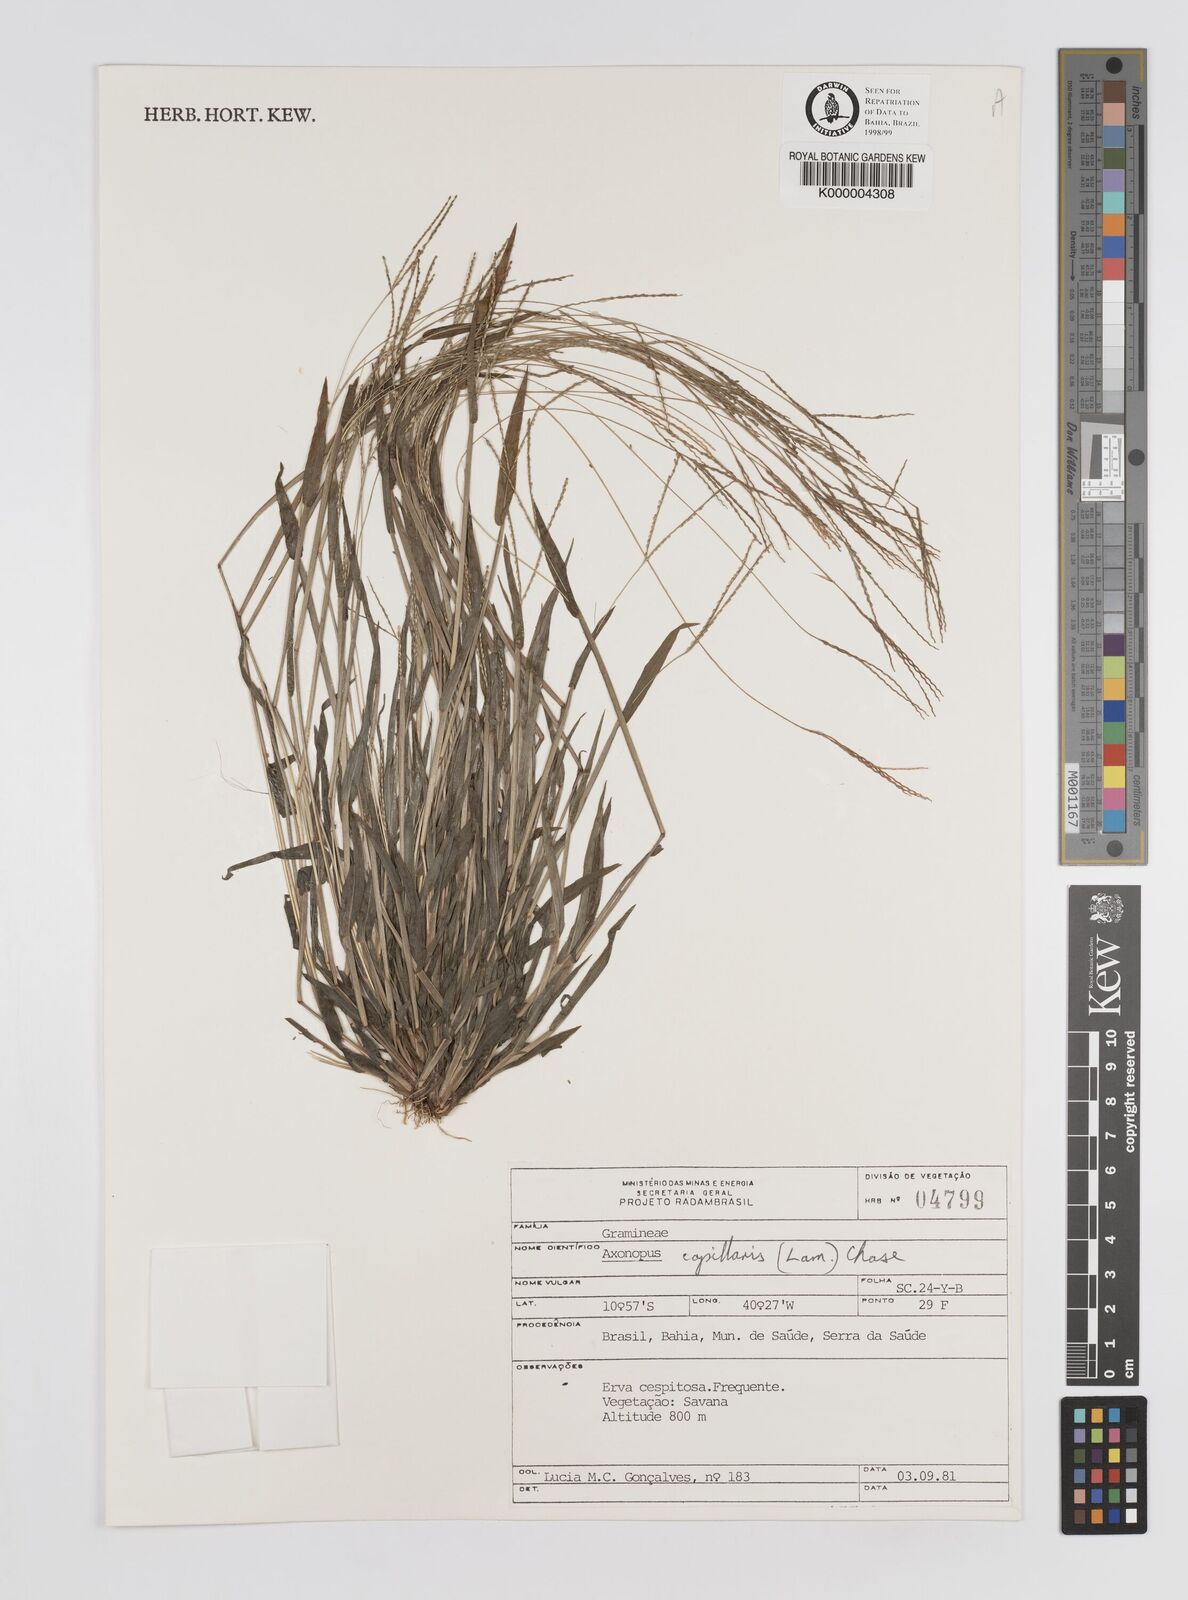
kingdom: Plantae
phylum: Tracheophyta
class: Liliopsida
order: Poales
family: Poaceae
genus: Axonopus
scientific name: Axonopus capillaris
